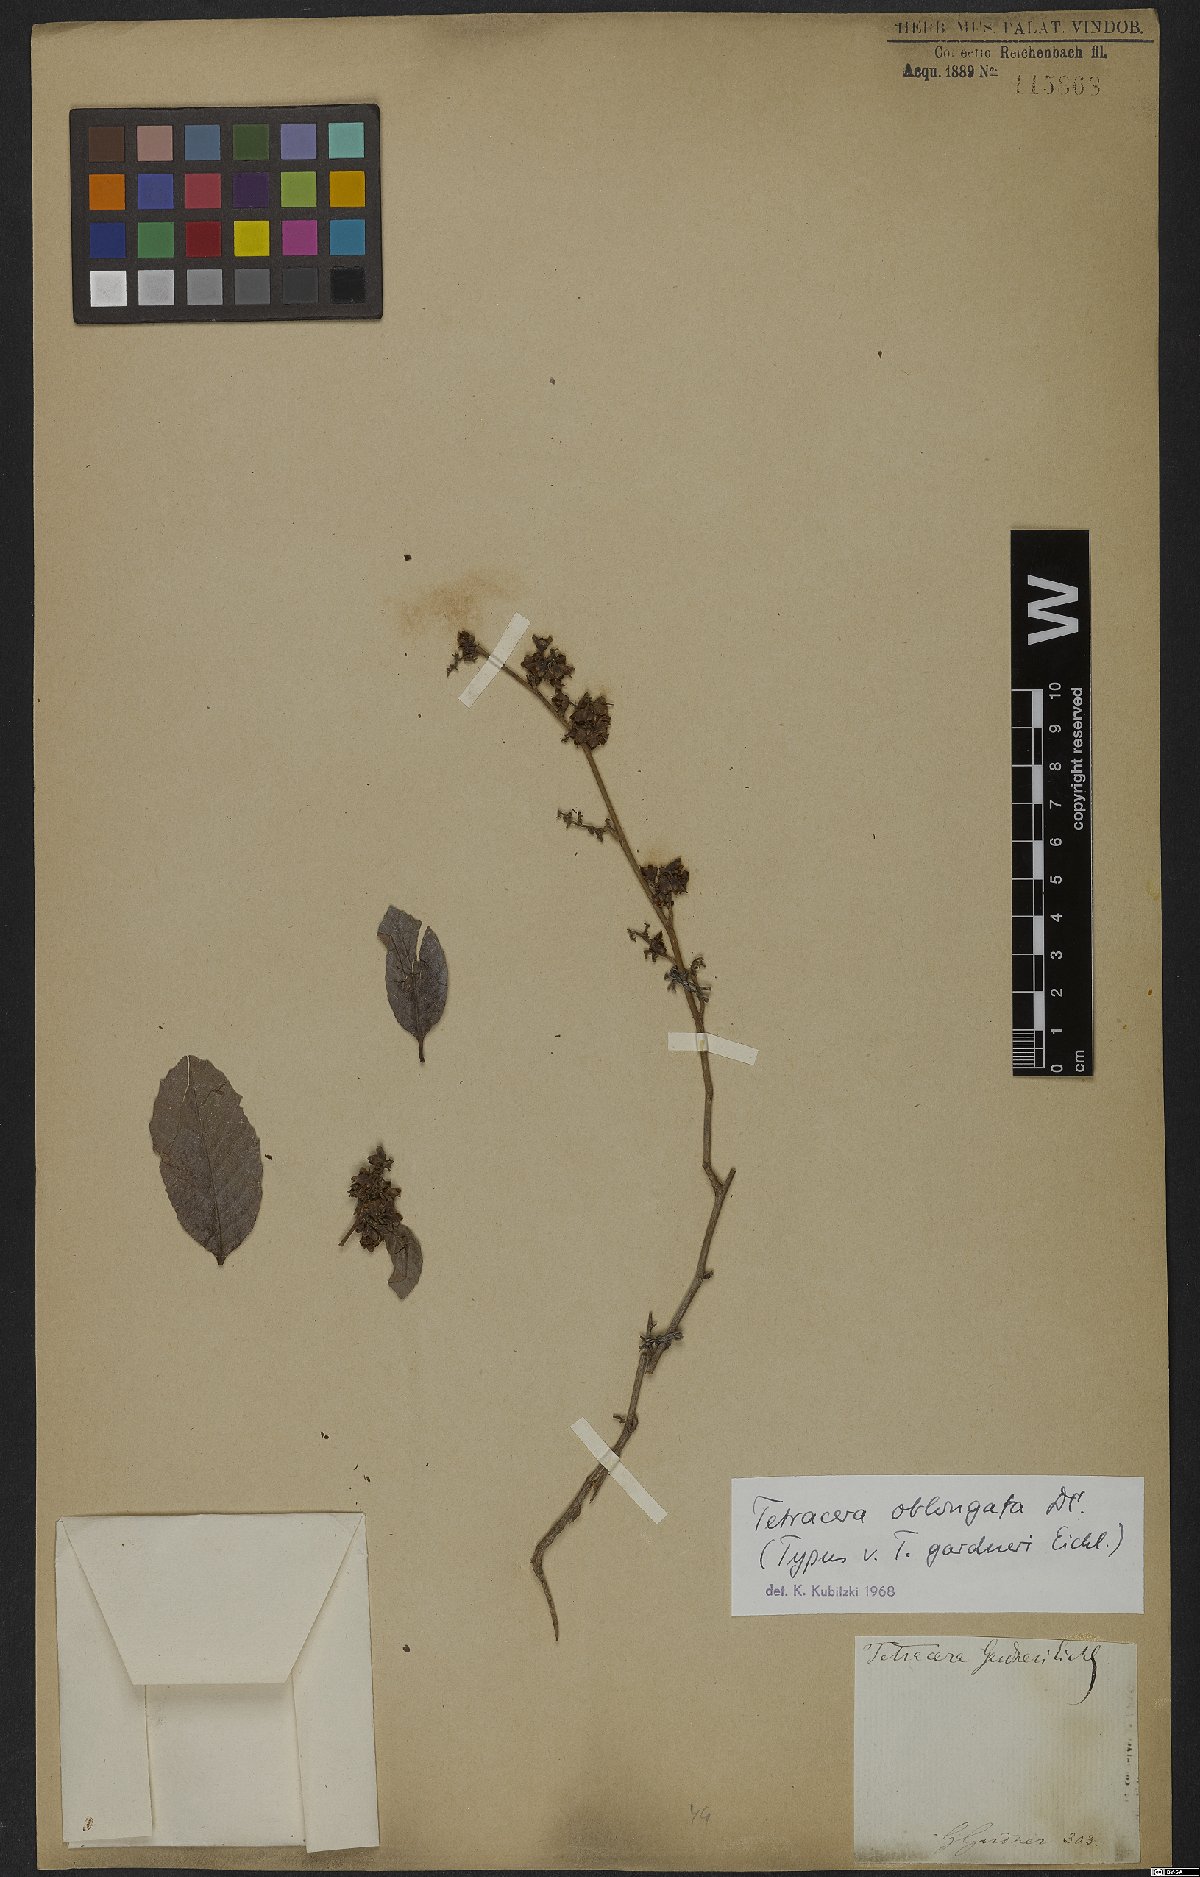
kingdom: Plantae
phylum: Tracheophyta
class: Magnoliopsida
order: Dilleniales
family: Dilleniaceae
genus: Tetracera
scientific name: Tetracera oblongata
